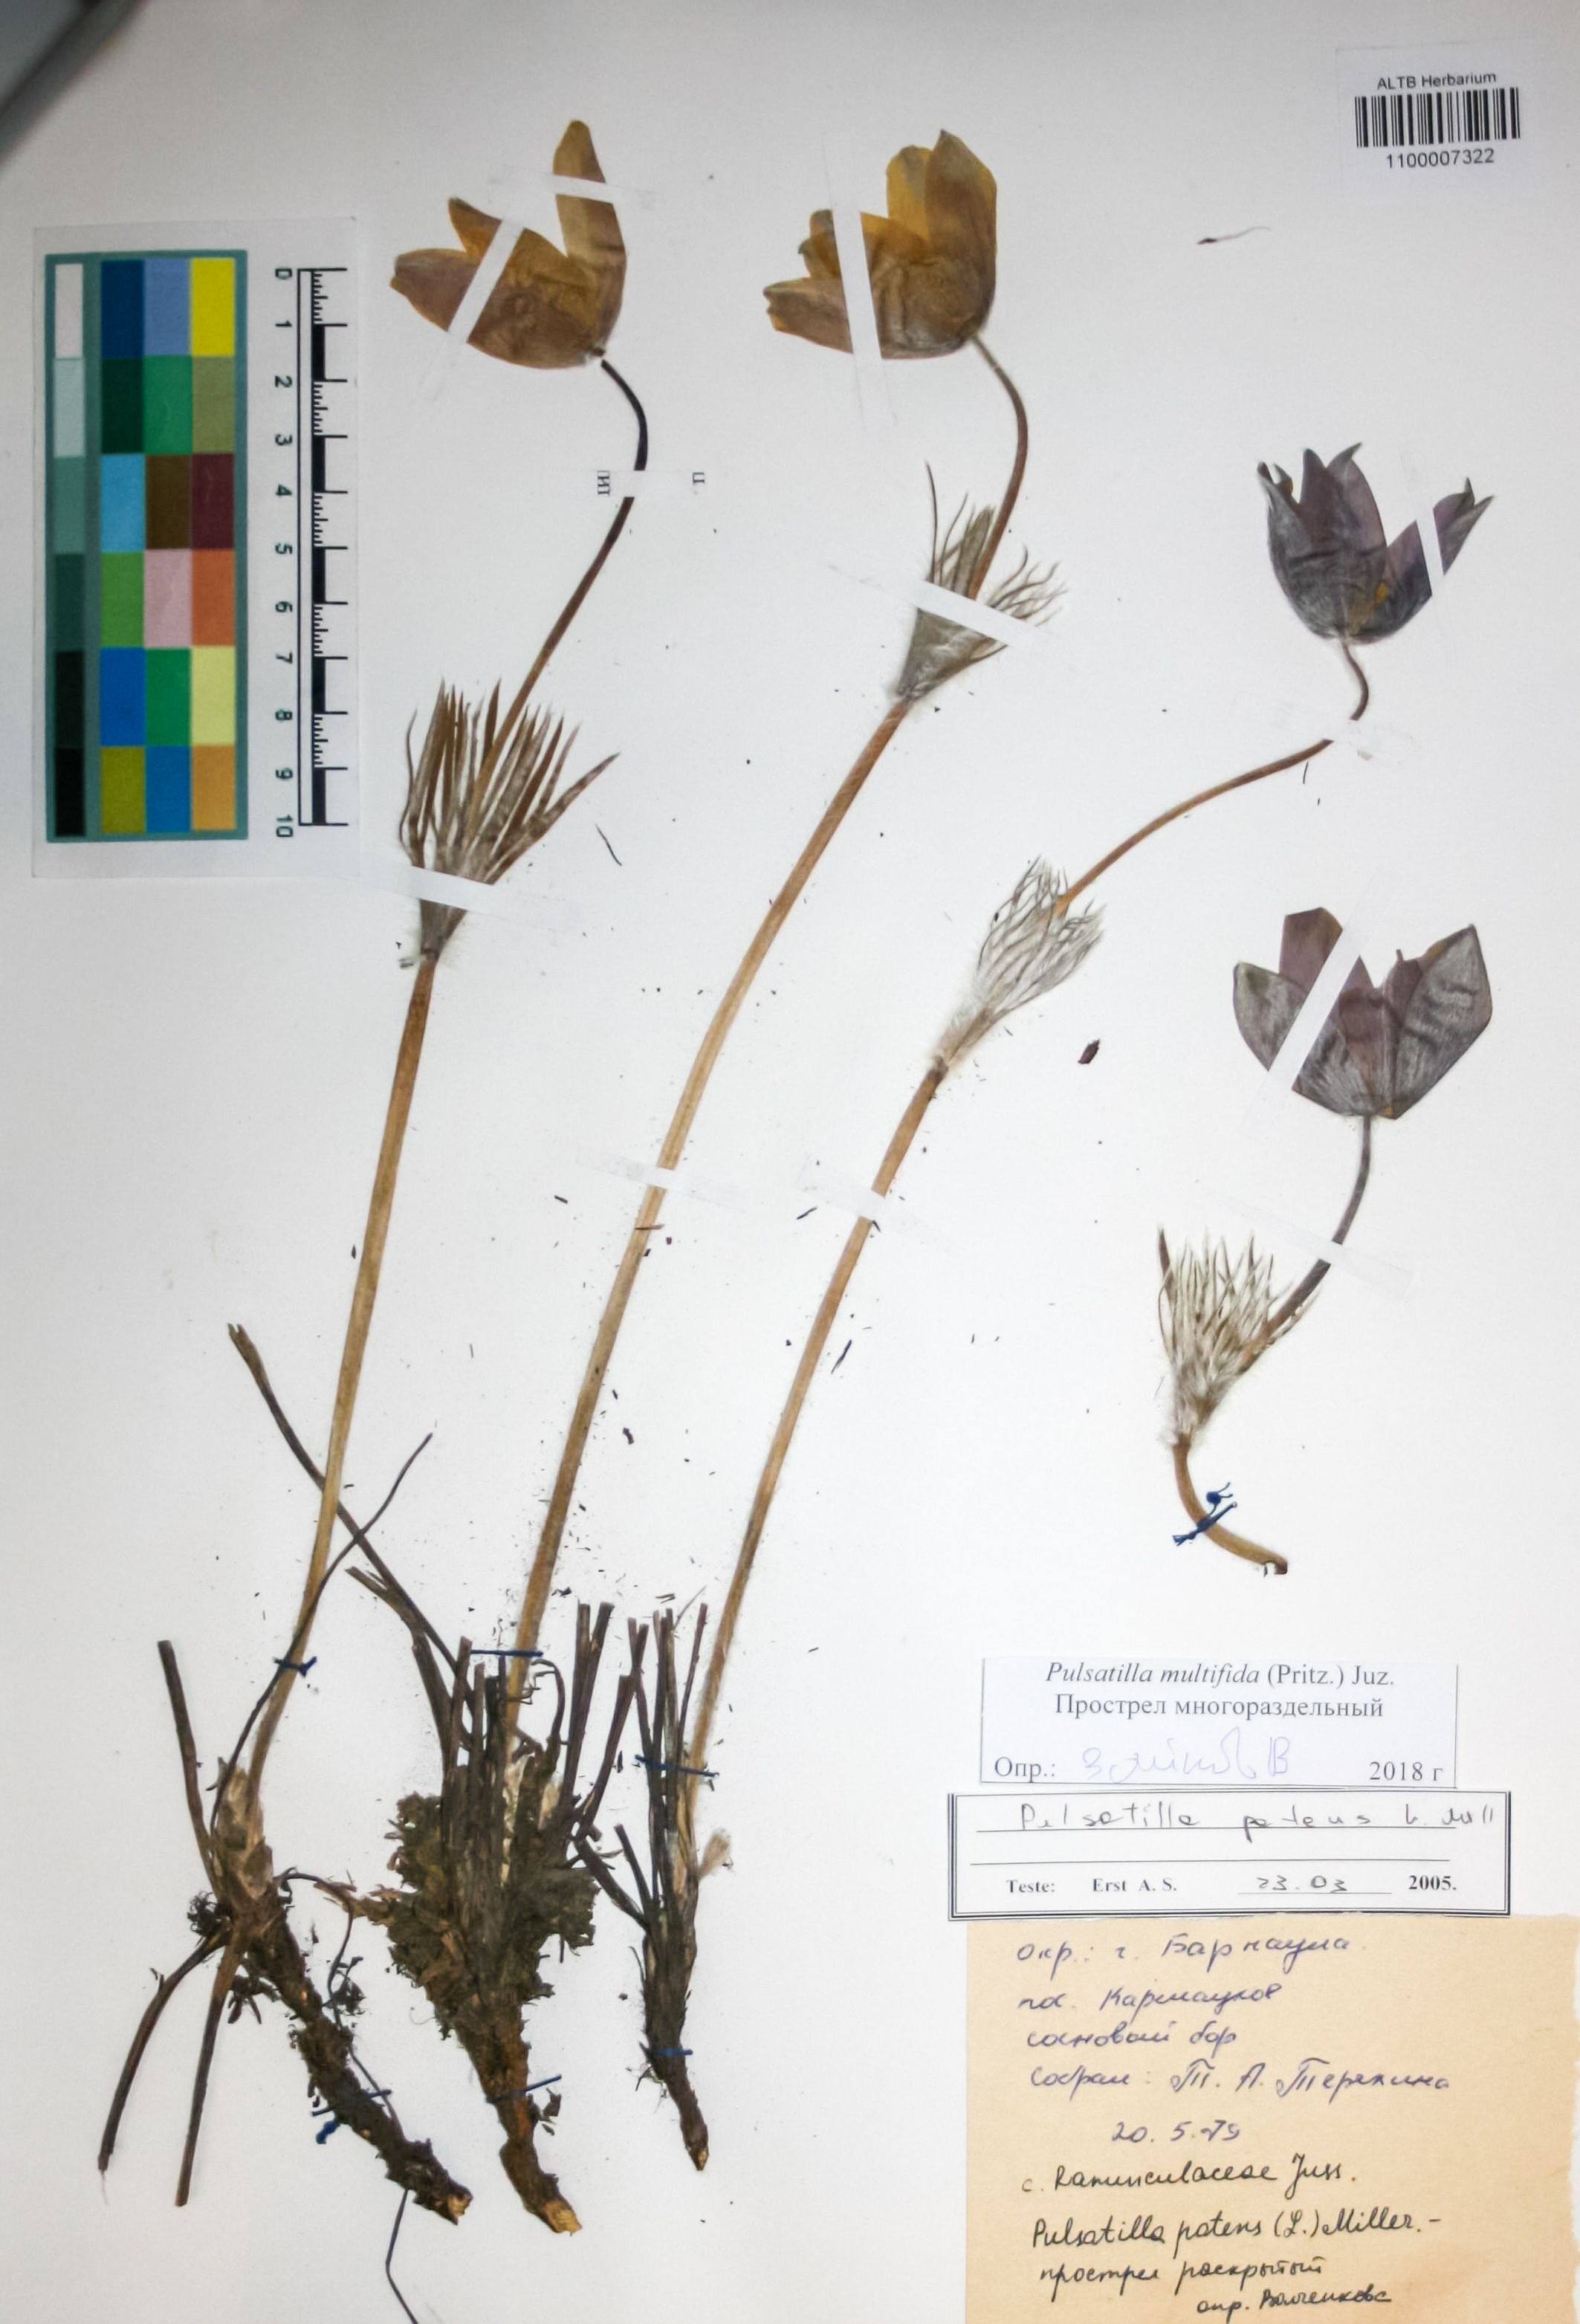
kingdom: Plantae
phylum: Tracheophyta
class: Magnoliopsida
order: Ranunculales
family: Ranunculaceae
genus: Pulsatilla
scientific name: Pulsatilla patens
